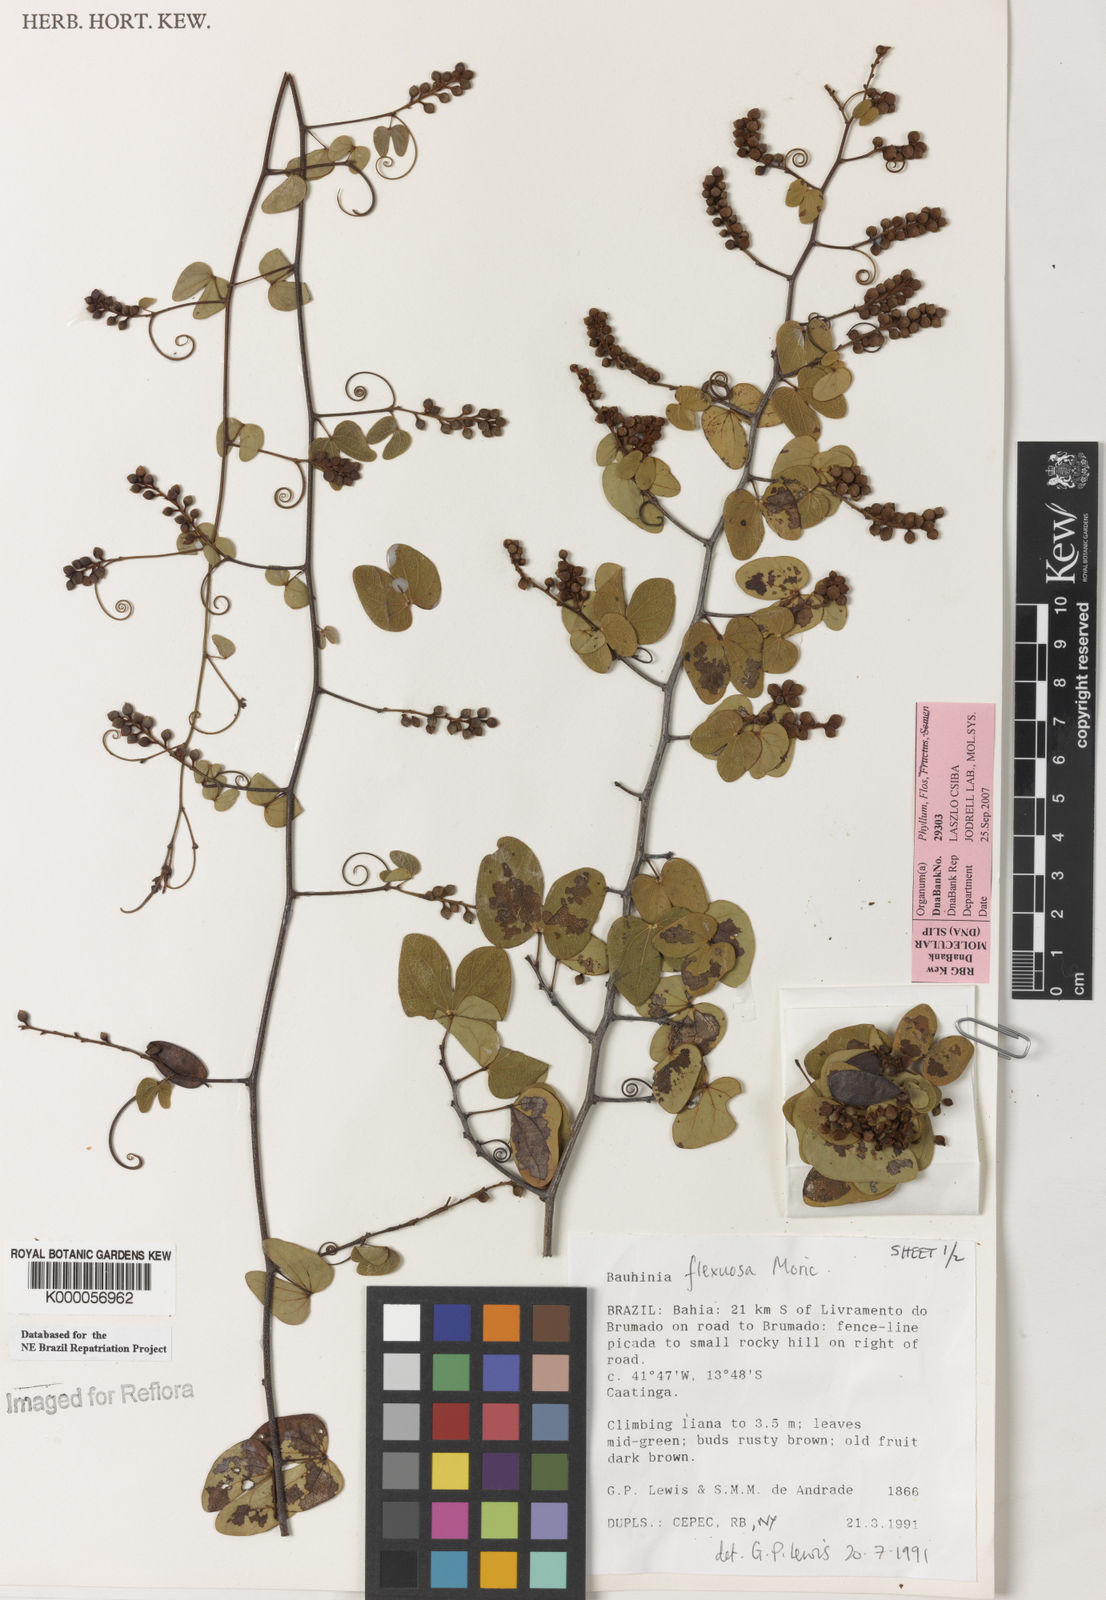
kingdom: Plantae
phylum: Tracheophyta
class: Magnoliopsida
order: Fabales
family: Fabaceae
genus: Schnella
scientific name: Schnella flexuosa
